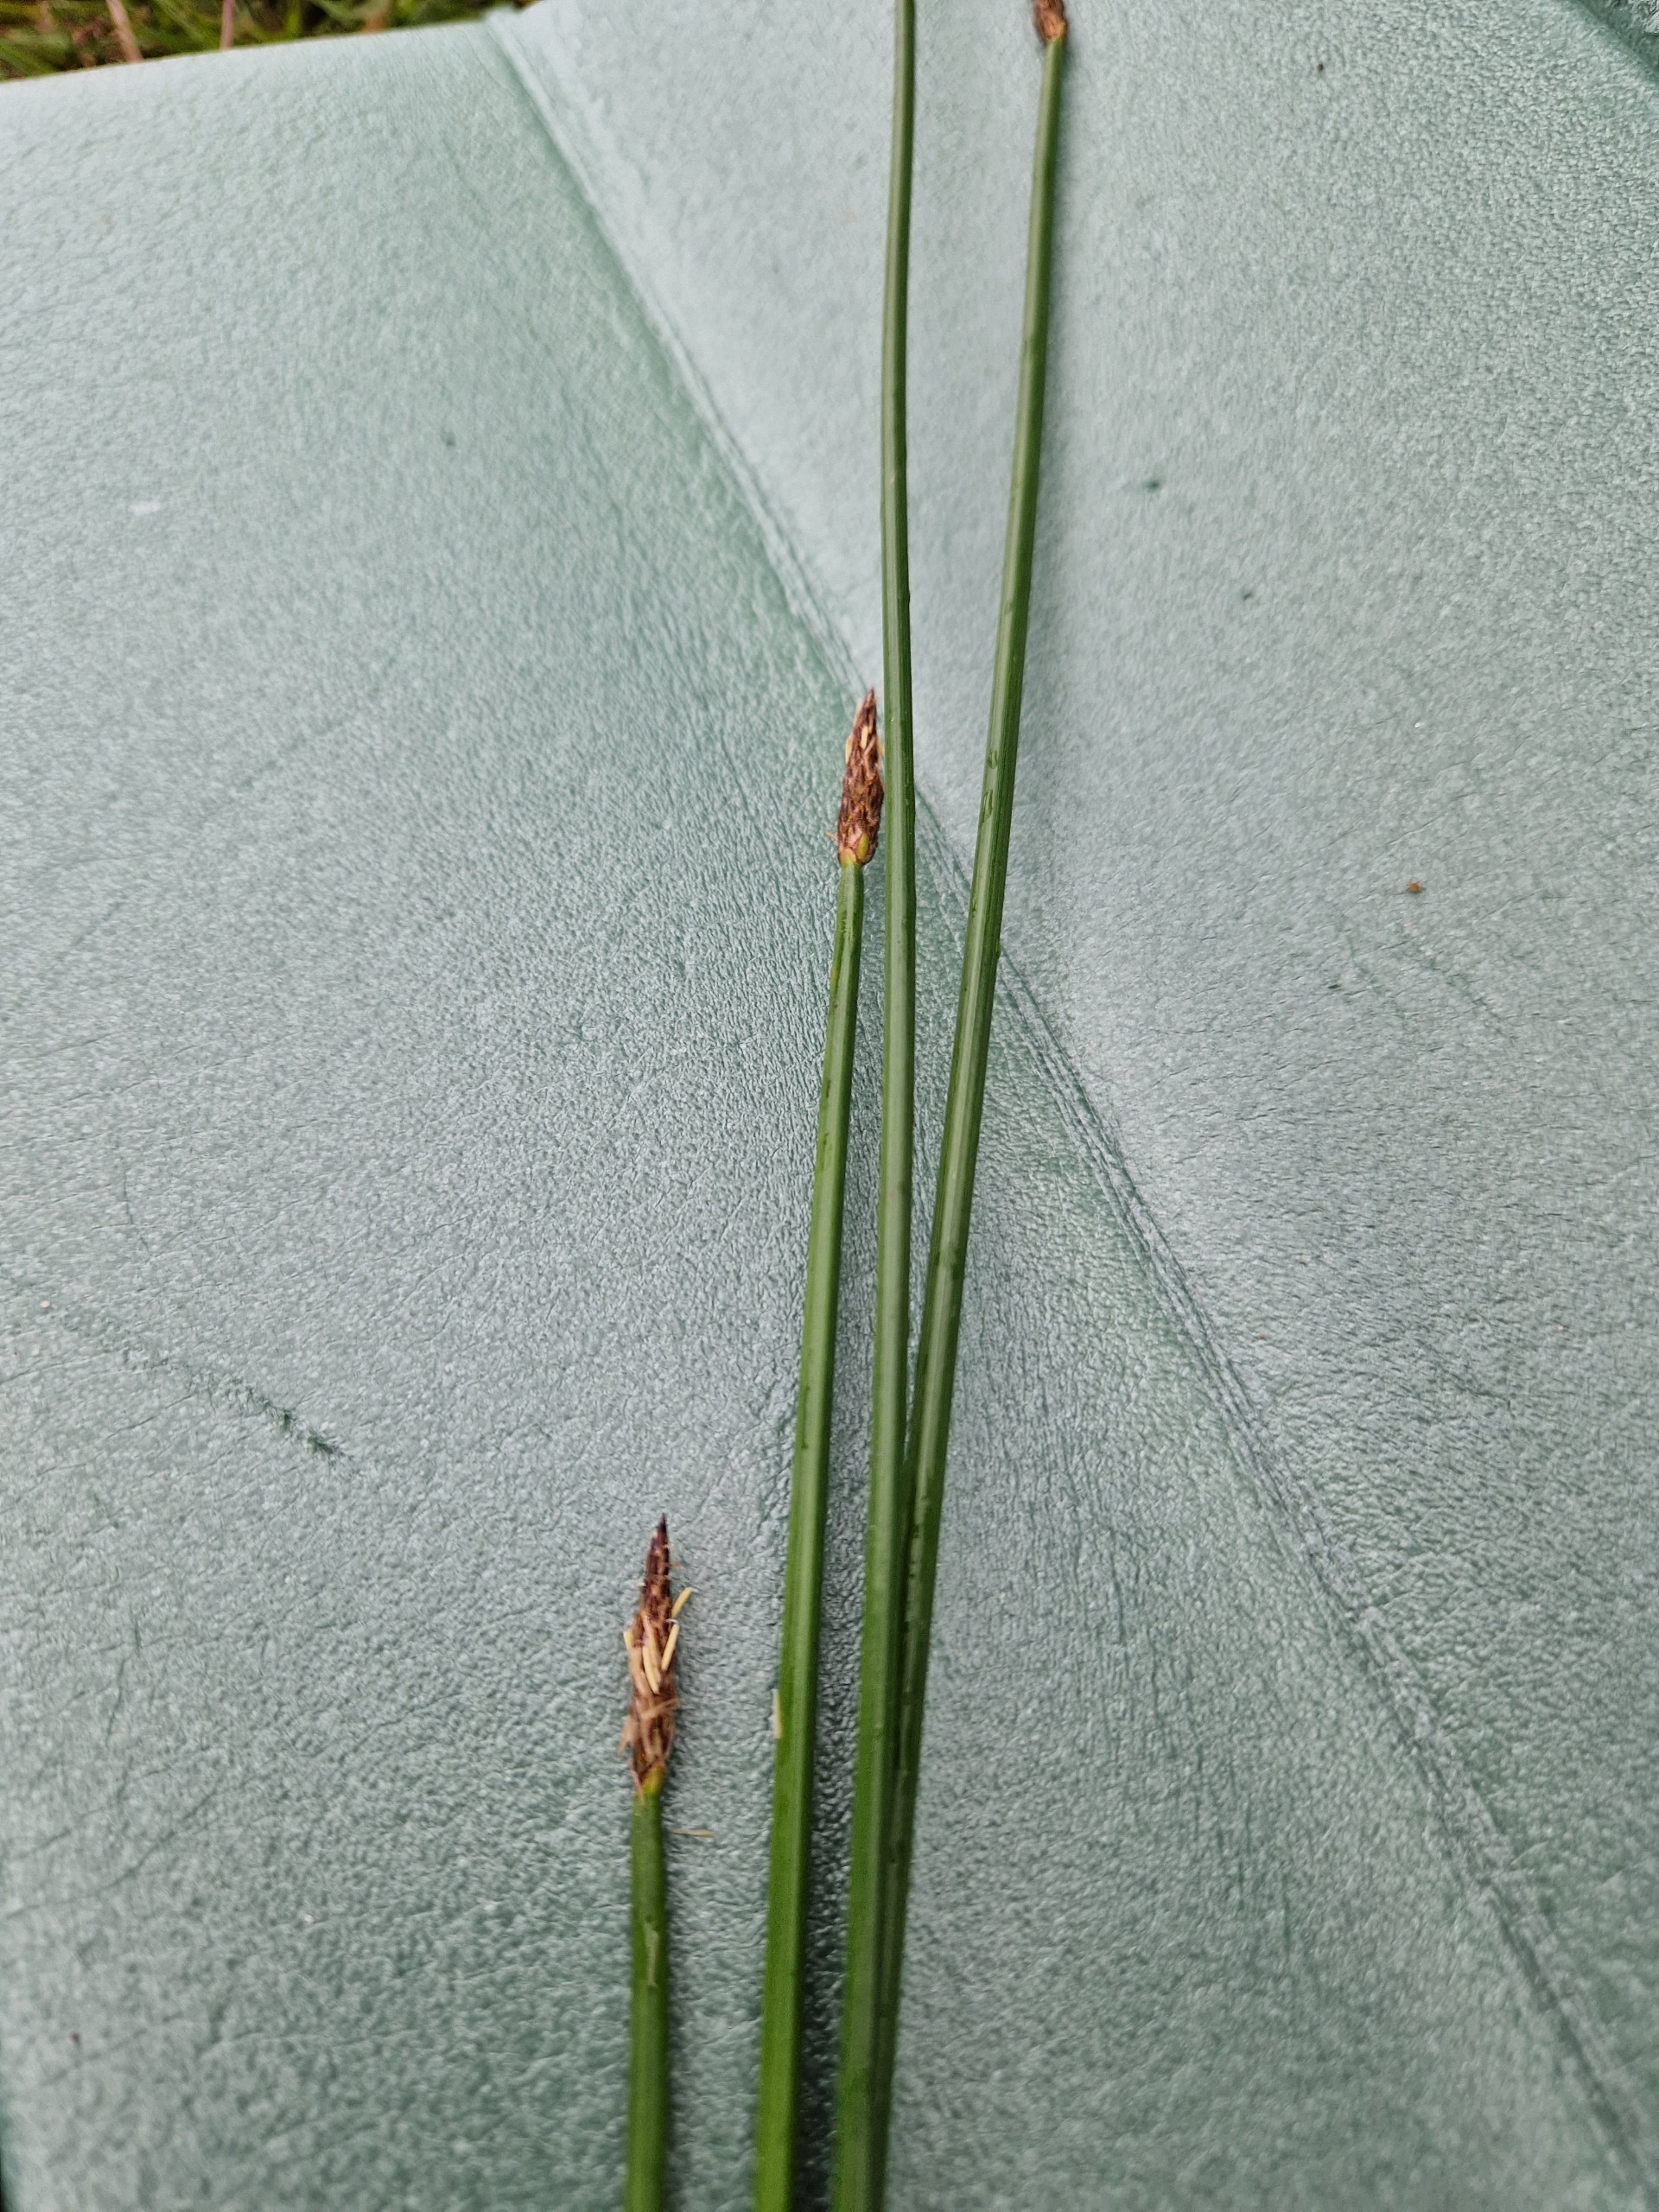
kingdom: Plantae
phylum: Tracheophyta
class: Liliopsida
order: Poales
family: Cyperaceae
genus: Eleocharis
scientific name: Eleocharis palustris
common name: Almindelig sumpstrå
